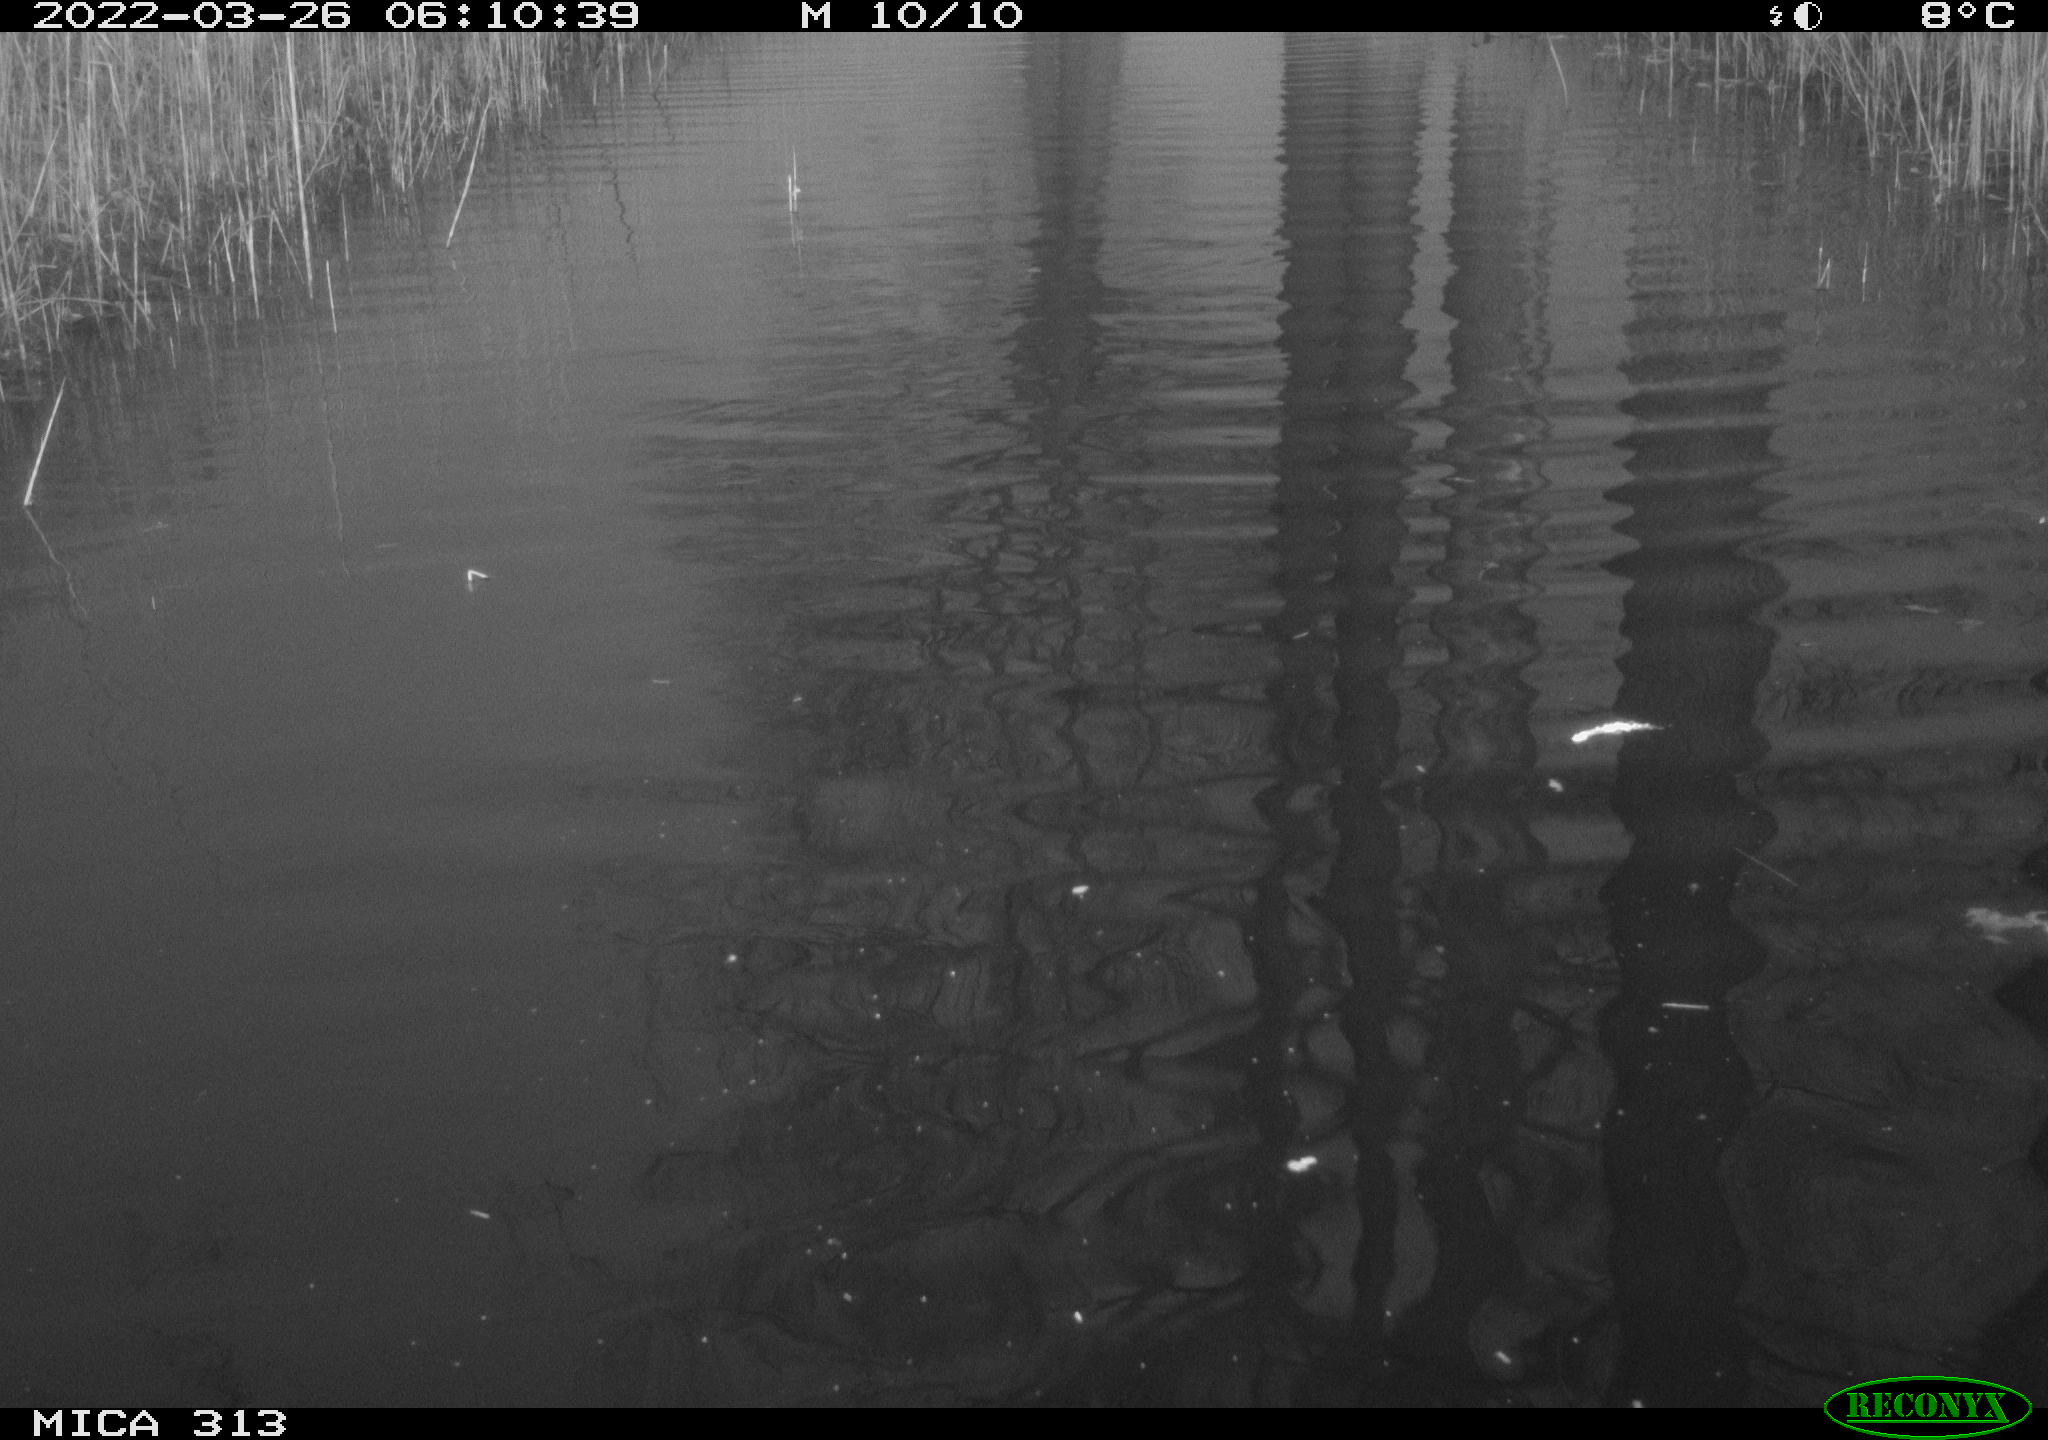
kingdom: Animalia
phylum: Chordata
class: Aves
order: Gruiformes
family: Rallidae
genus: Gallinula
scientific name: Gallinula chloropus
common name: Common moorhen
